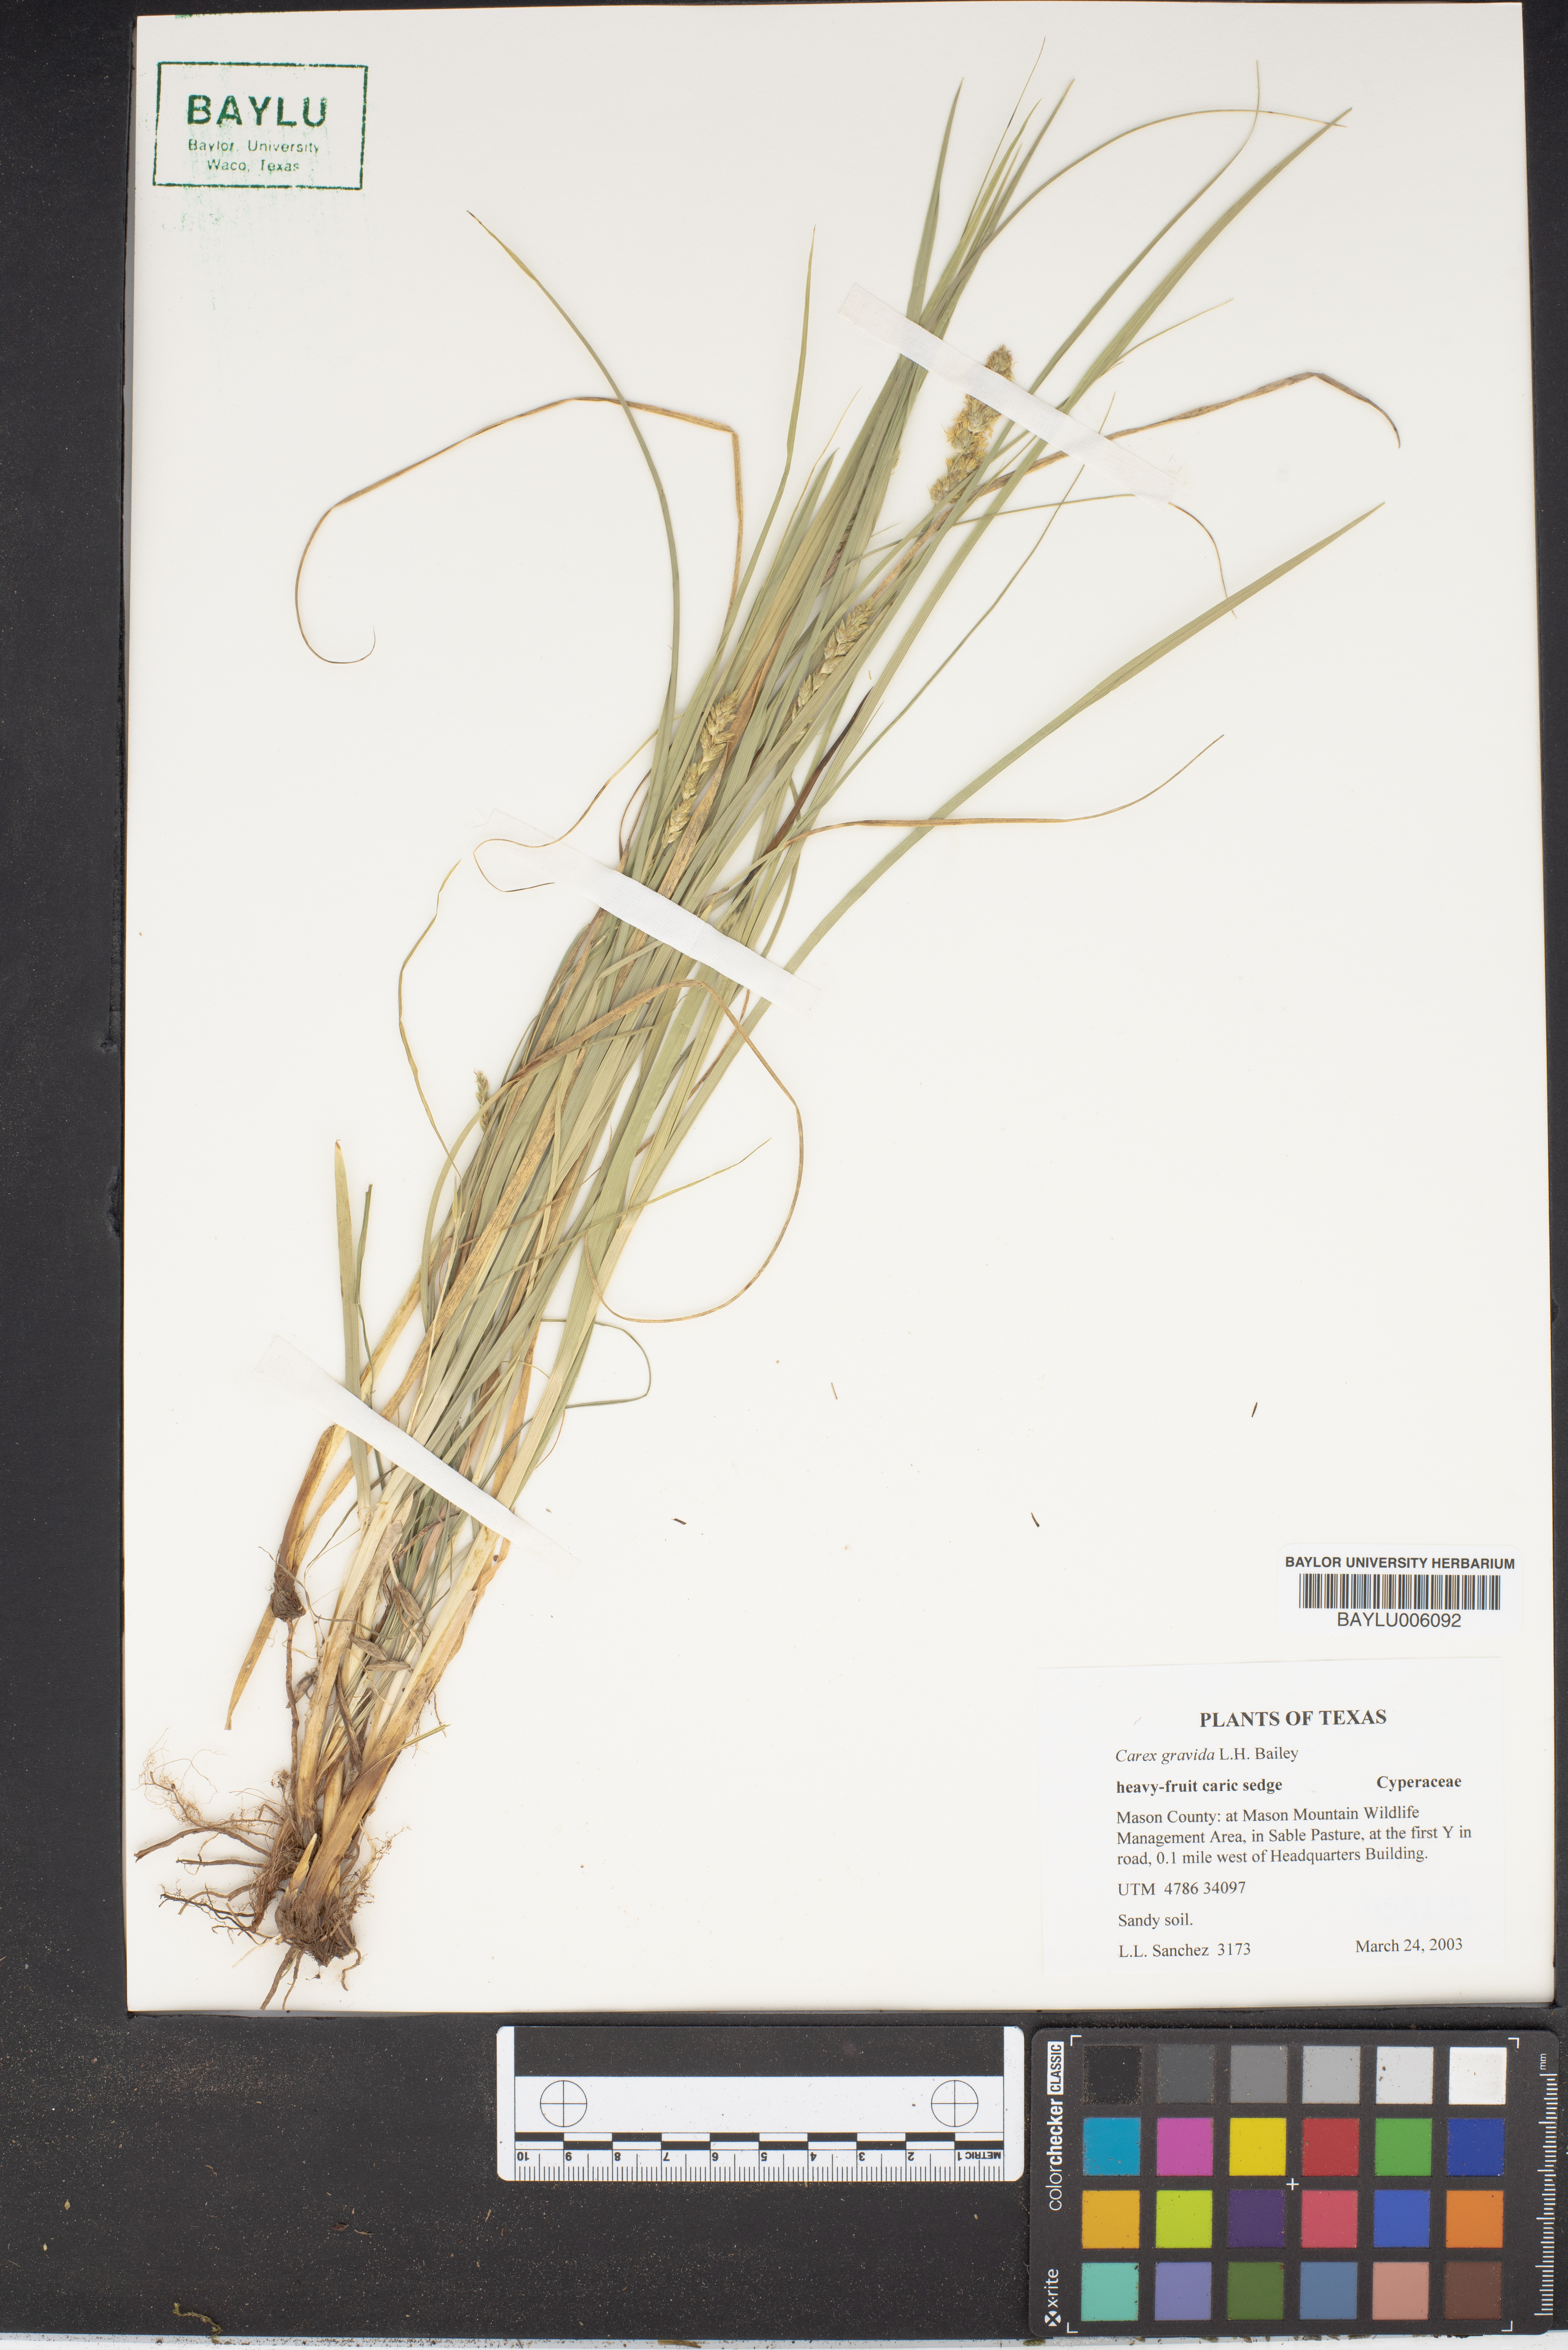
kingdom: Plantae
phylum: Tracheophyta
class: Liliopsida
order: Poales
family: Cyperaceae
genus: Carex
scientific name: Carex gravida
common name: Heavy sedge
